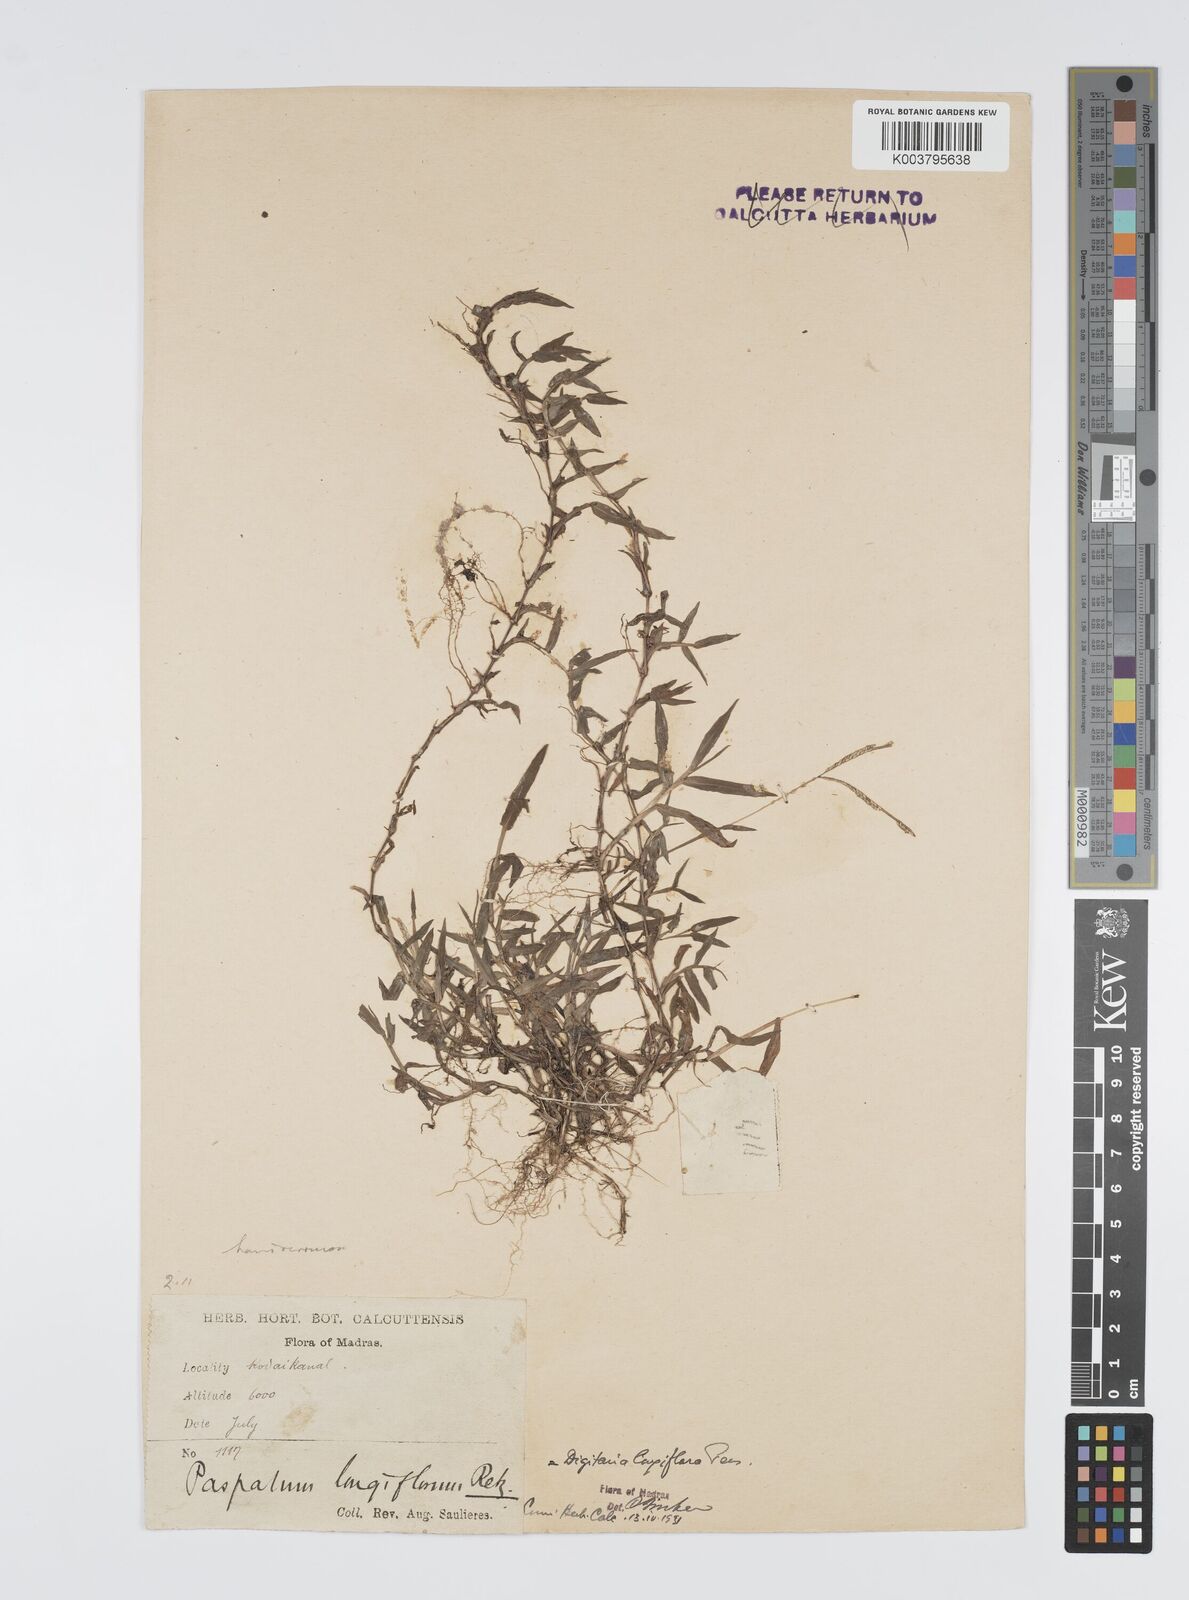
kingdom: Plantae
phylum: Tracheophyta
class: Liliopsida
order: Poales
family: Poaceae
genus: Digitaria
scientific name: Digitaria longiflora
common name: Wire crabgrass
